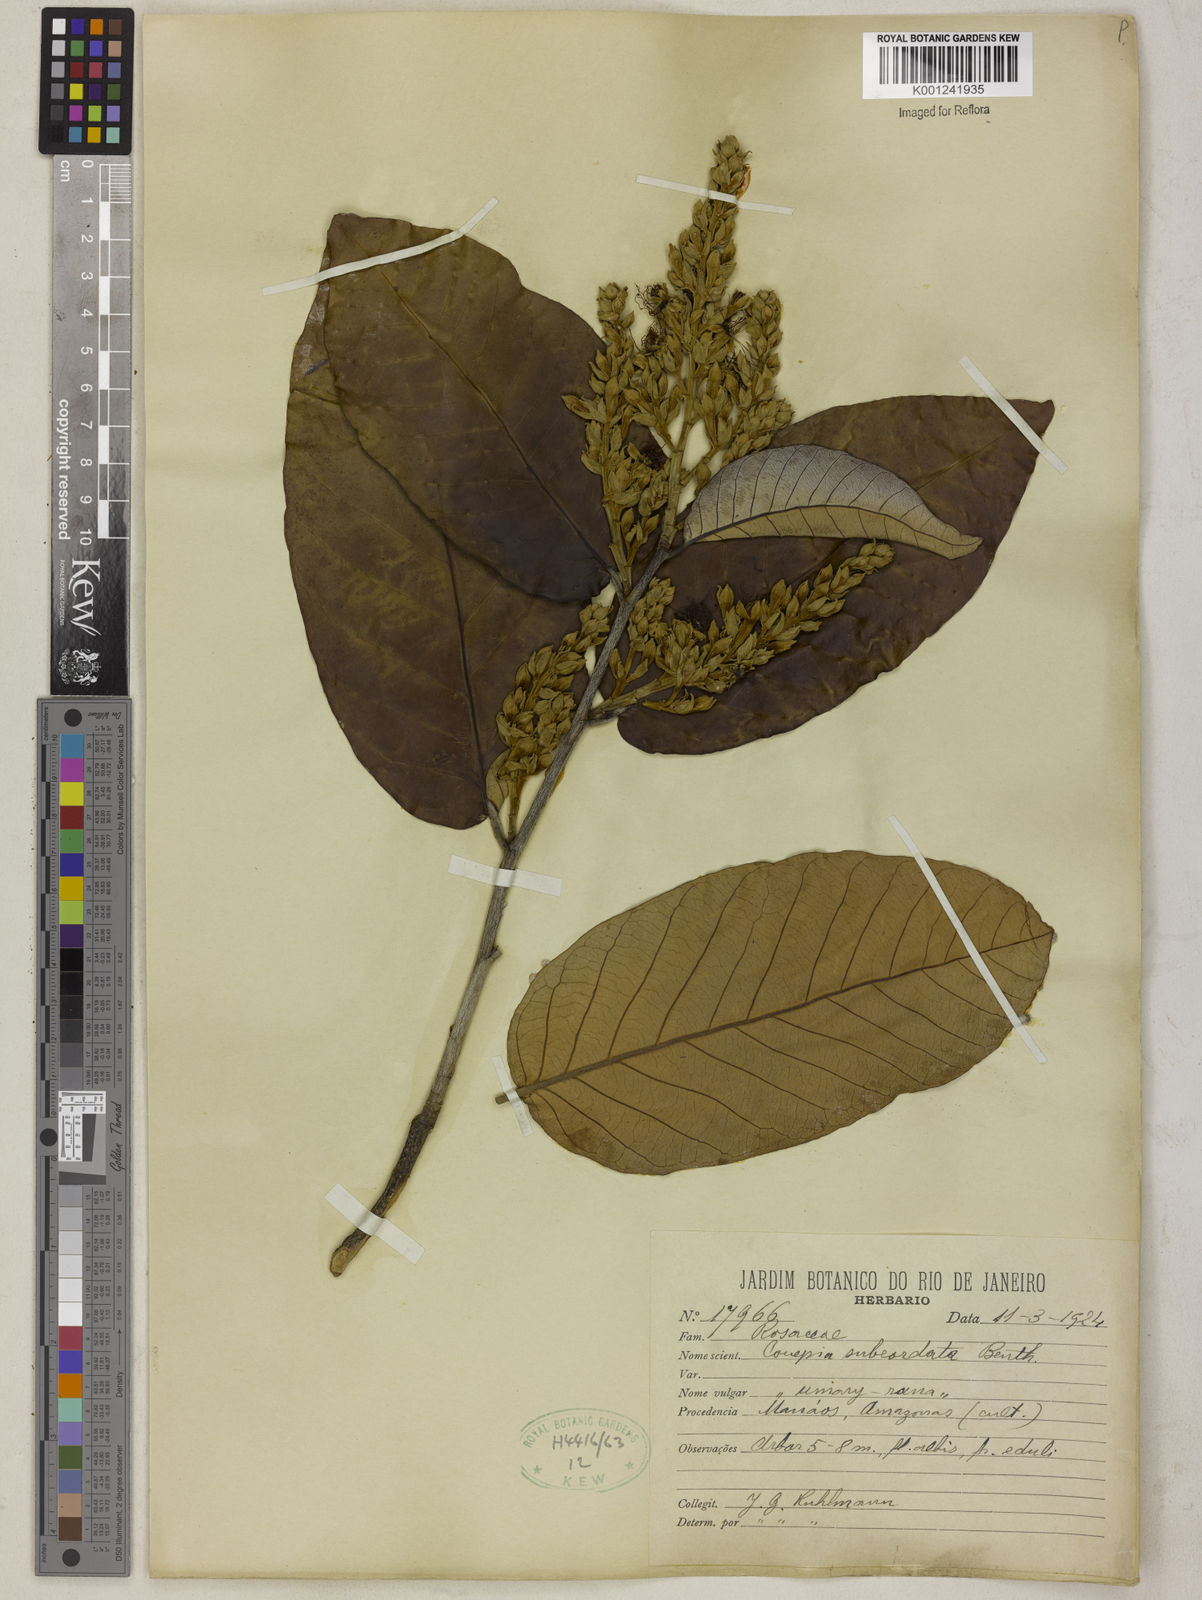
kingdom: Plantae
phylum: Tracheophyta
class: Magnoliopsida
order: Malpighiales
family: Chrysobalanaceae
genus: Couepia
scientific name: Couepia subcordata
